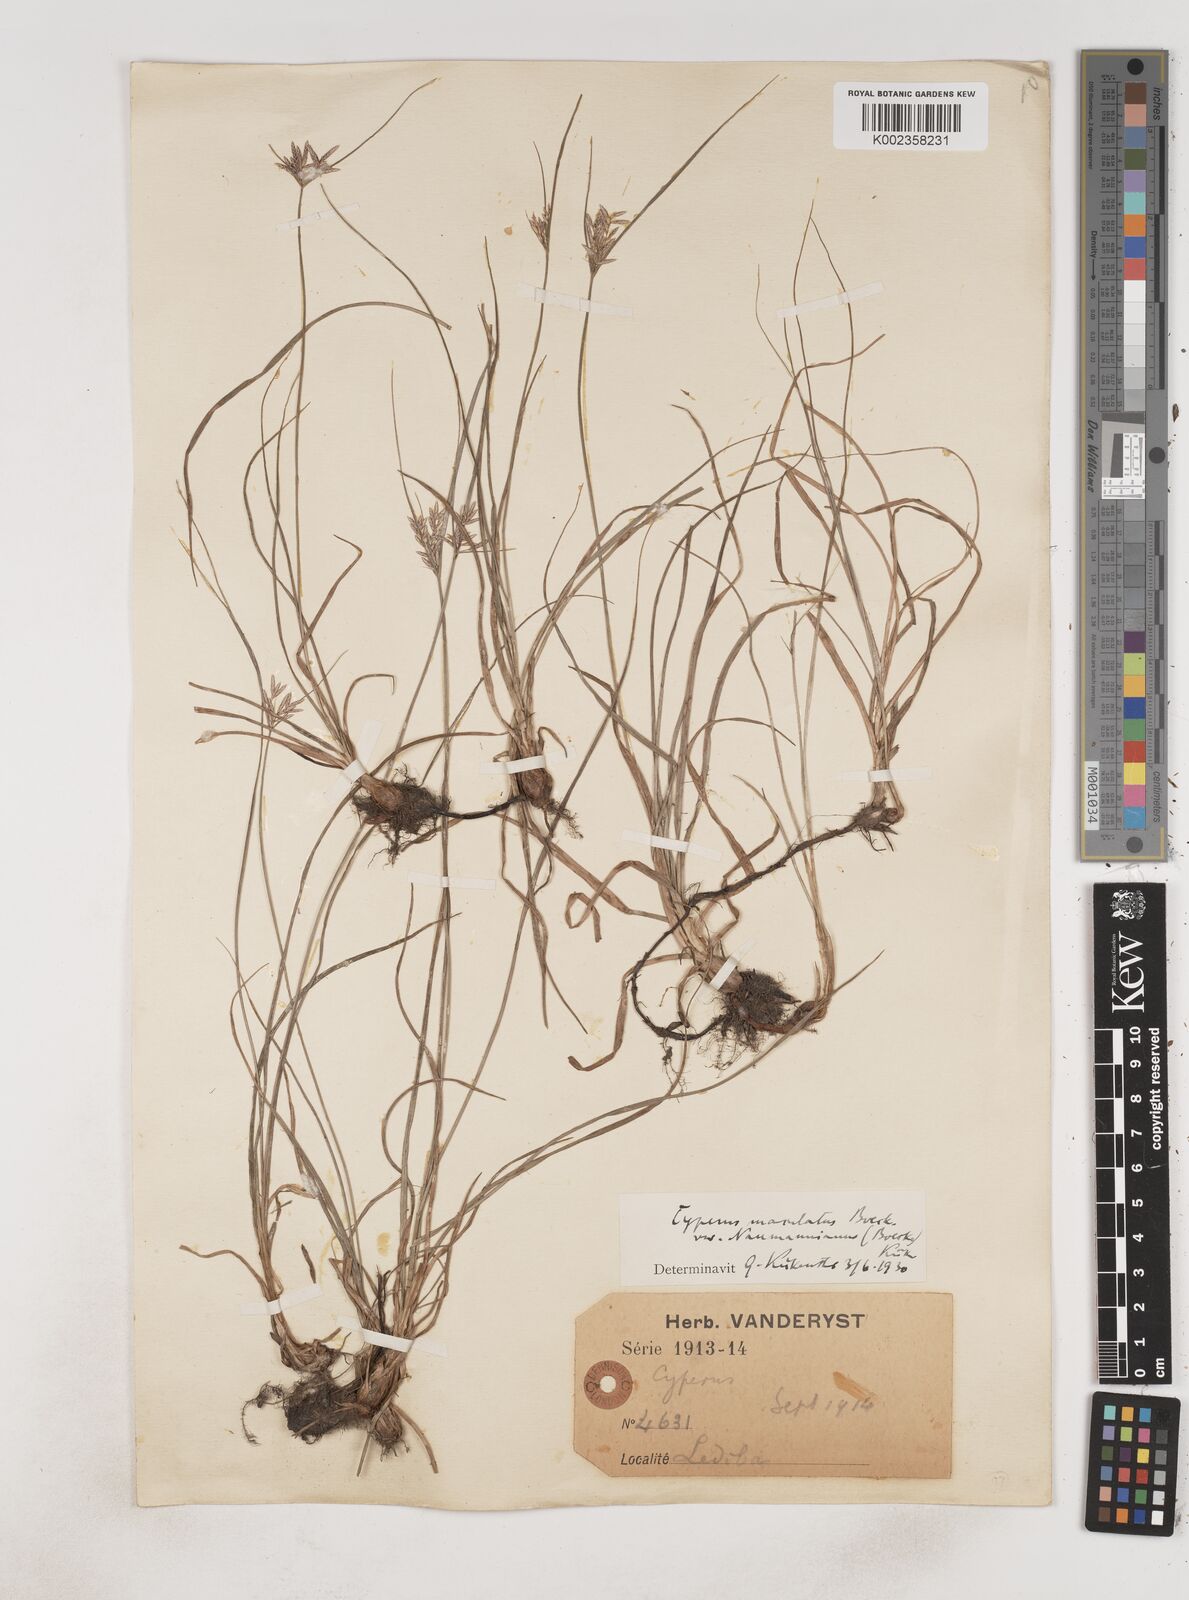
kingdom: Plantae
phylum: Tracheophyta
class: Liliopsida
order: Poales
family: Cyperaceae
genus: Cyperus
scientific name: Cyperus maculatus
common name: Maculated sedge
